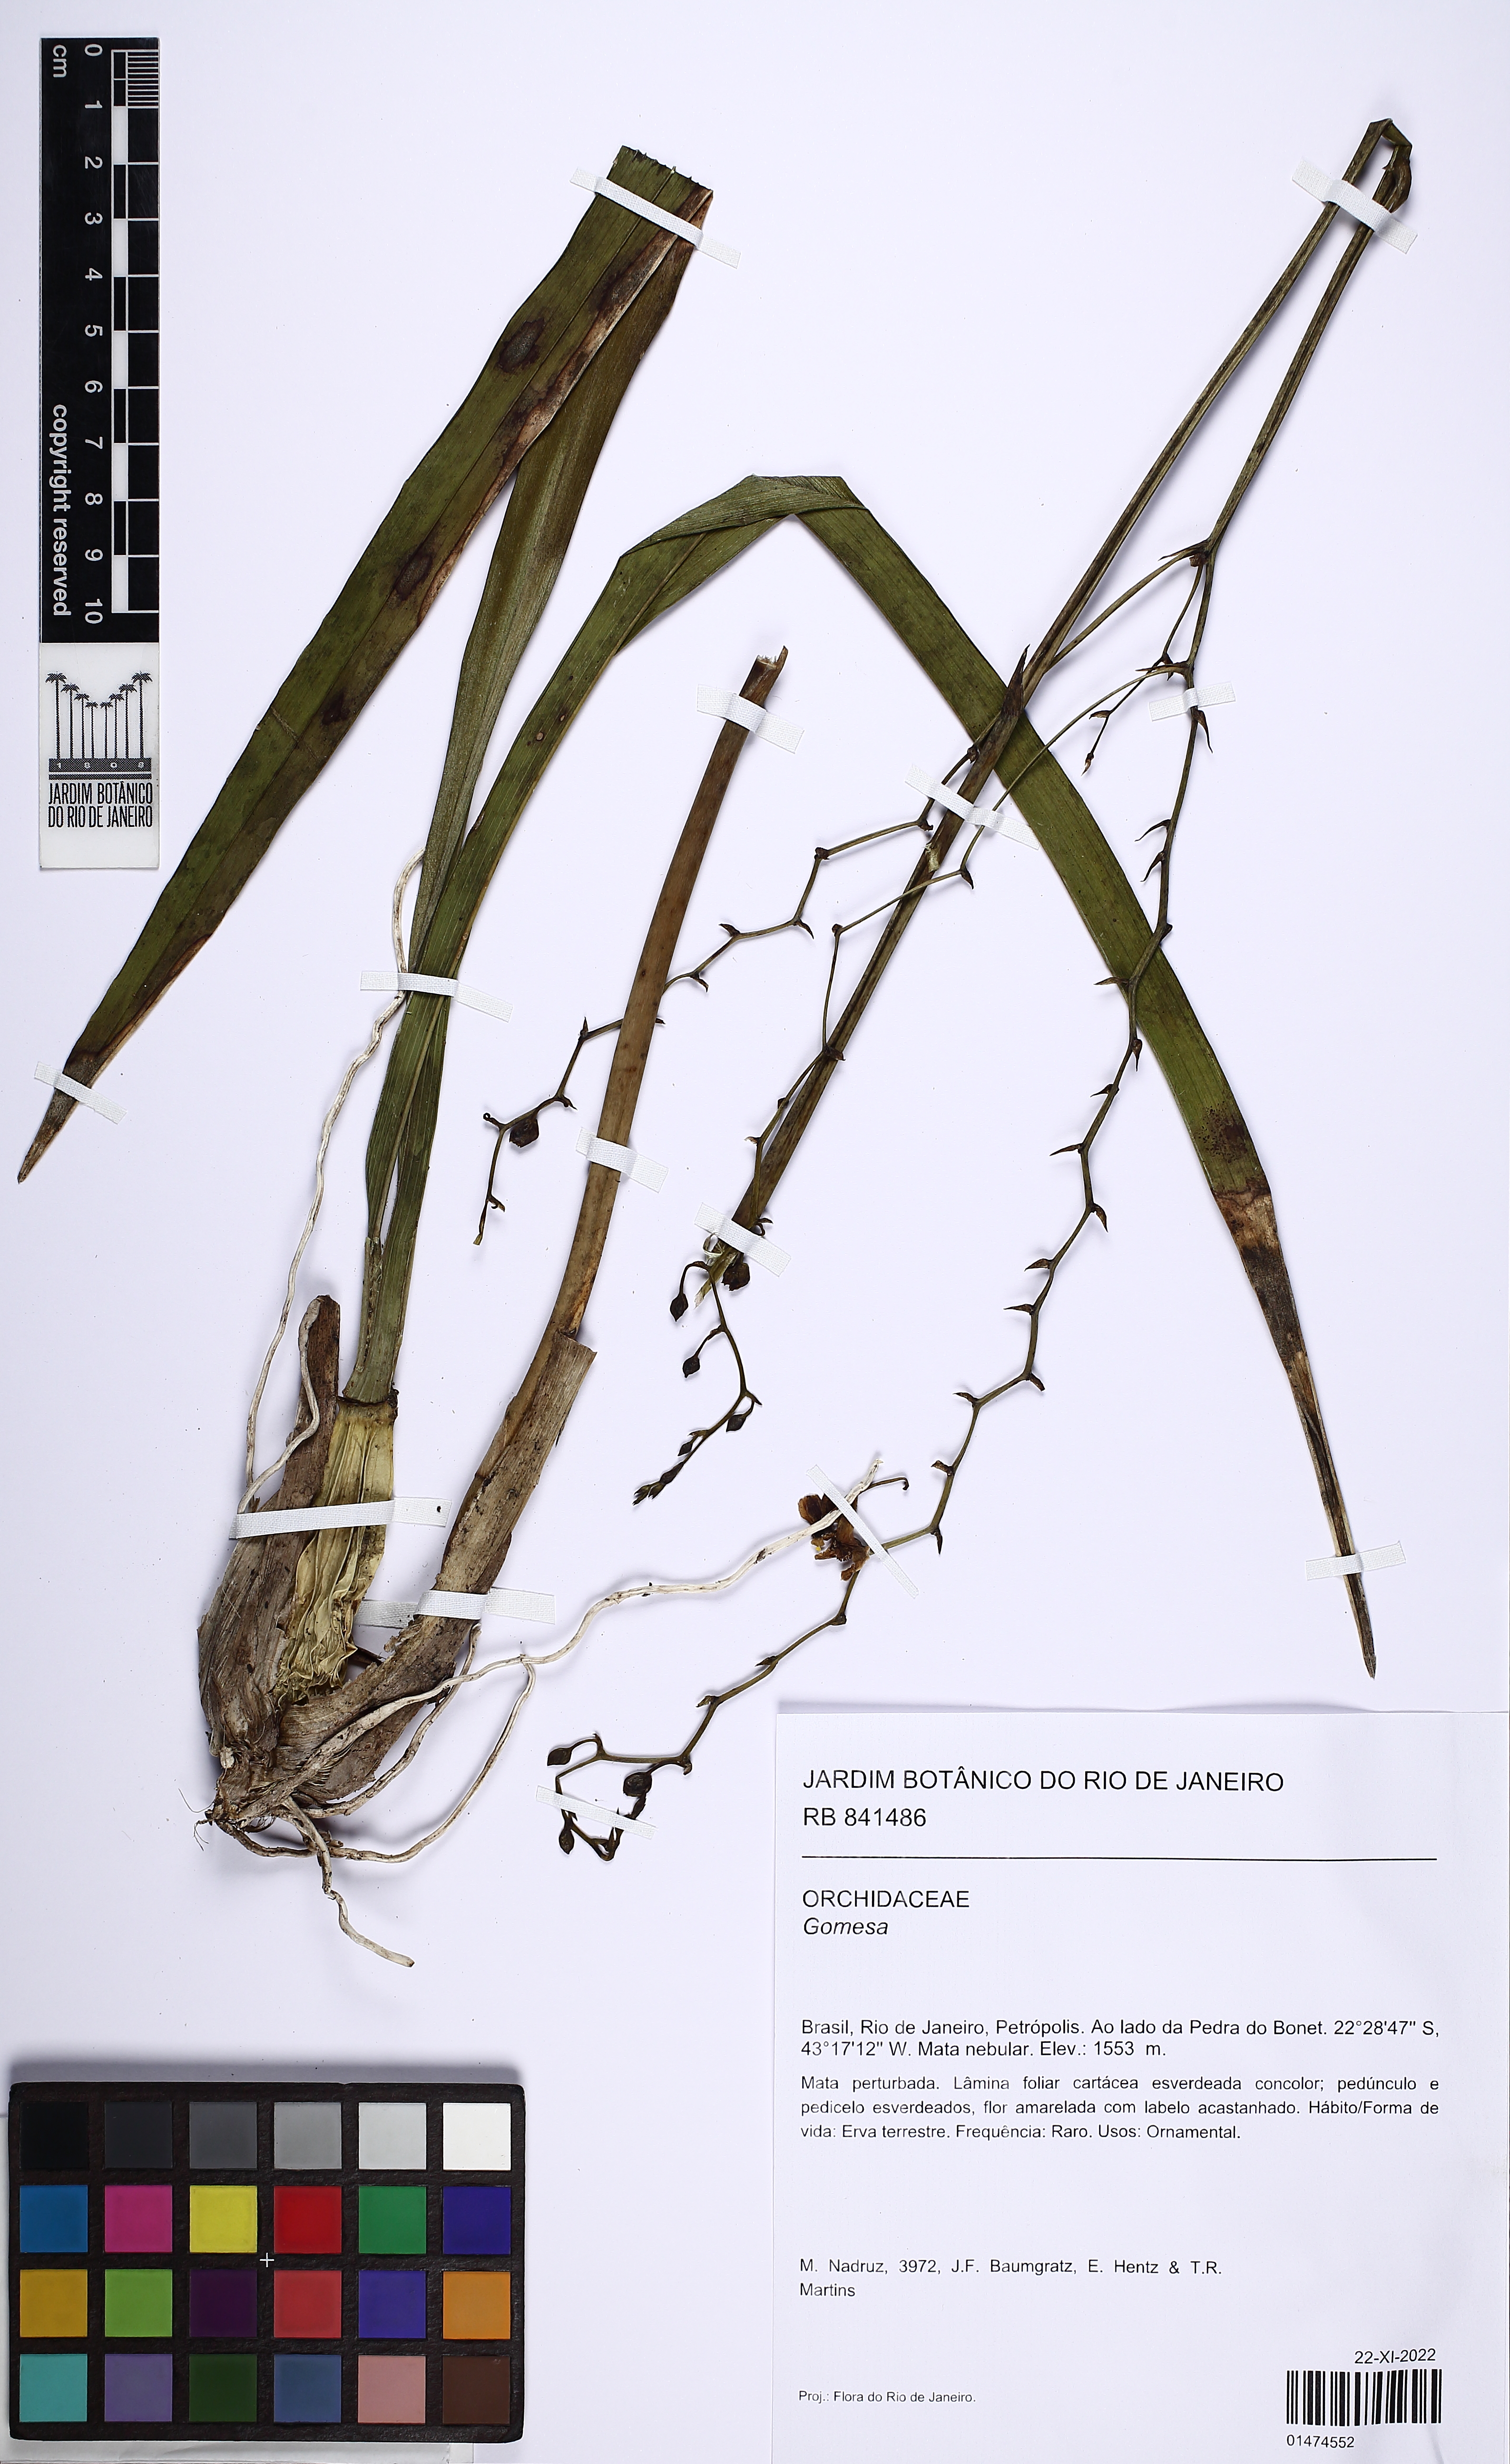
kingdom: Plantae
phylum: Tracheophyta
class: Liliopsida
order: Asparagales
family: Orchidaceae
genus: Gomesa
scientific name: Gomesa
